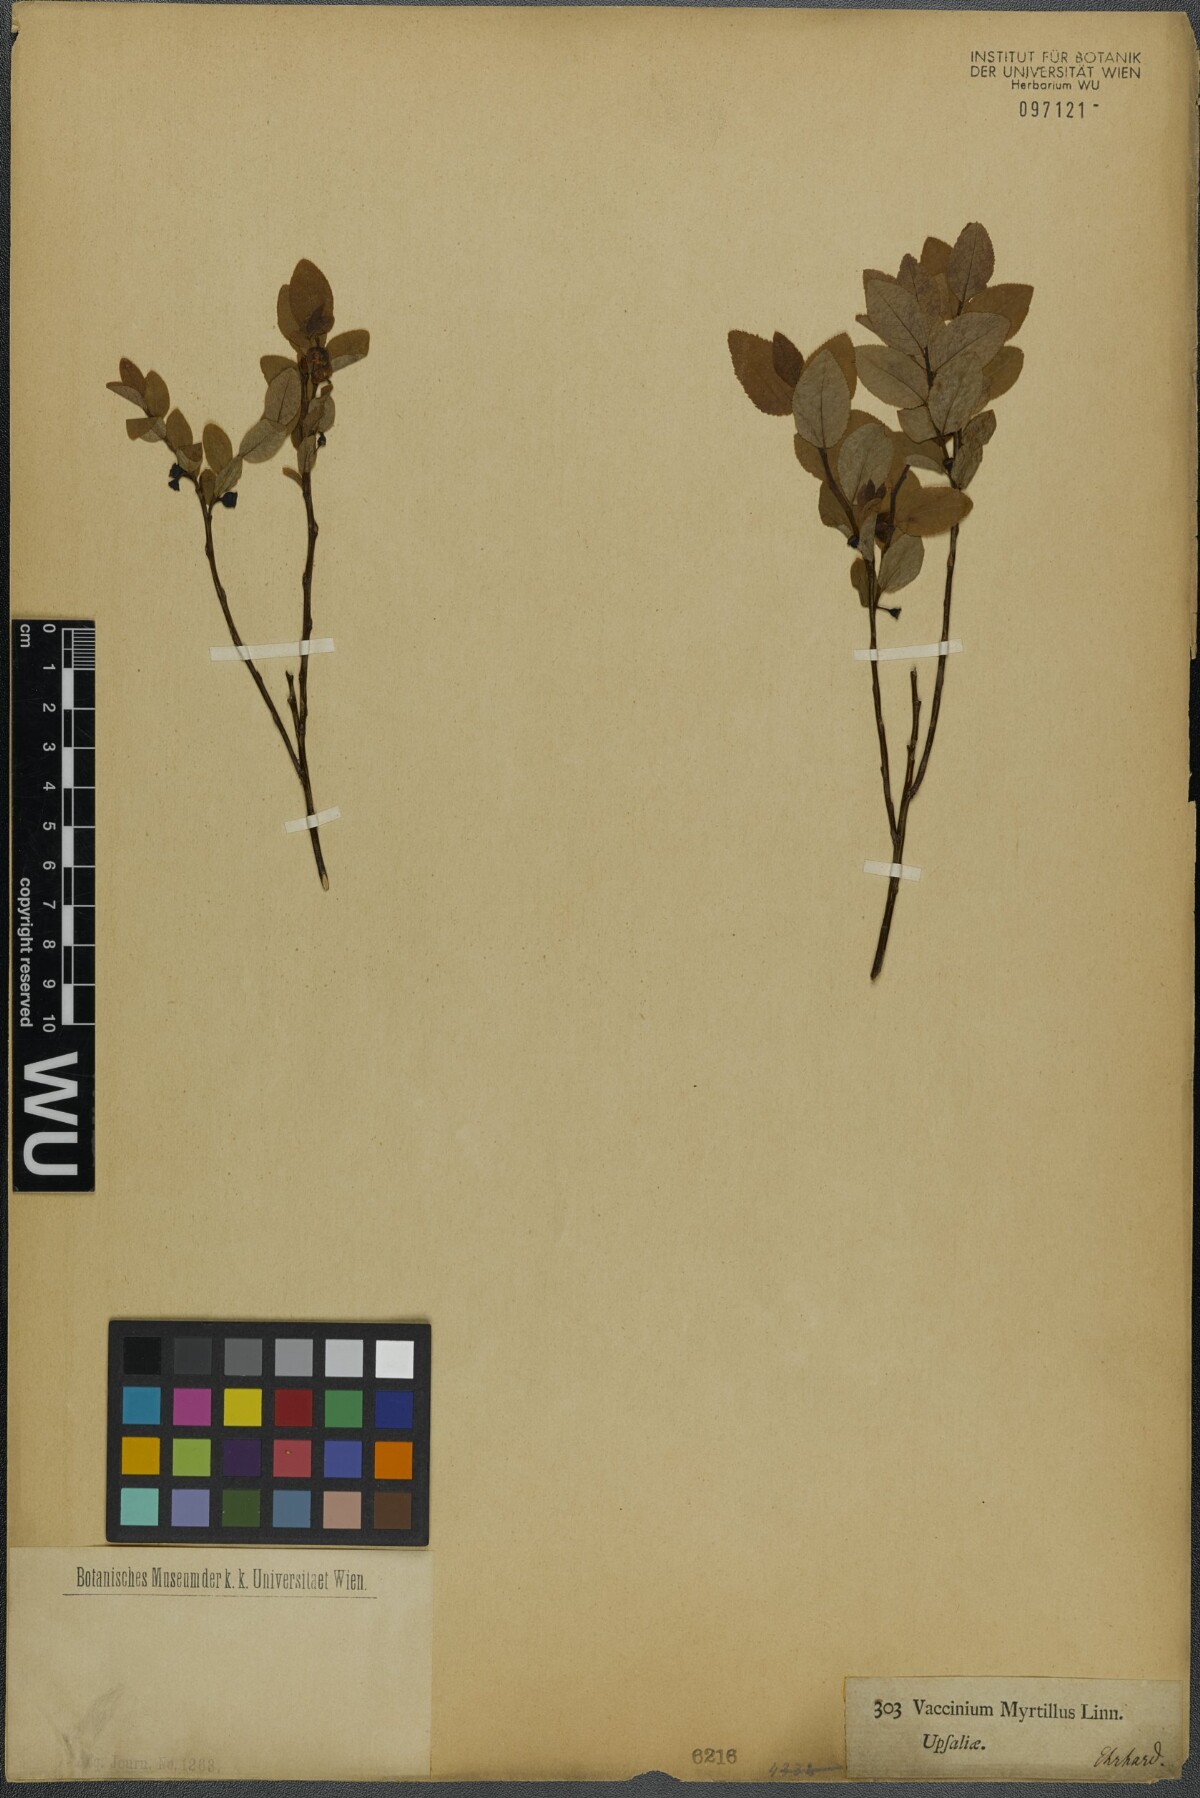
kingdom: Plantae
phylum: Tracheophyta
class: Magnoliopsida
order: Ericales
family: Ericaceae
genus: Vaccinium
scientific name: Vaccinium myrtillus
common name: Bilberry
